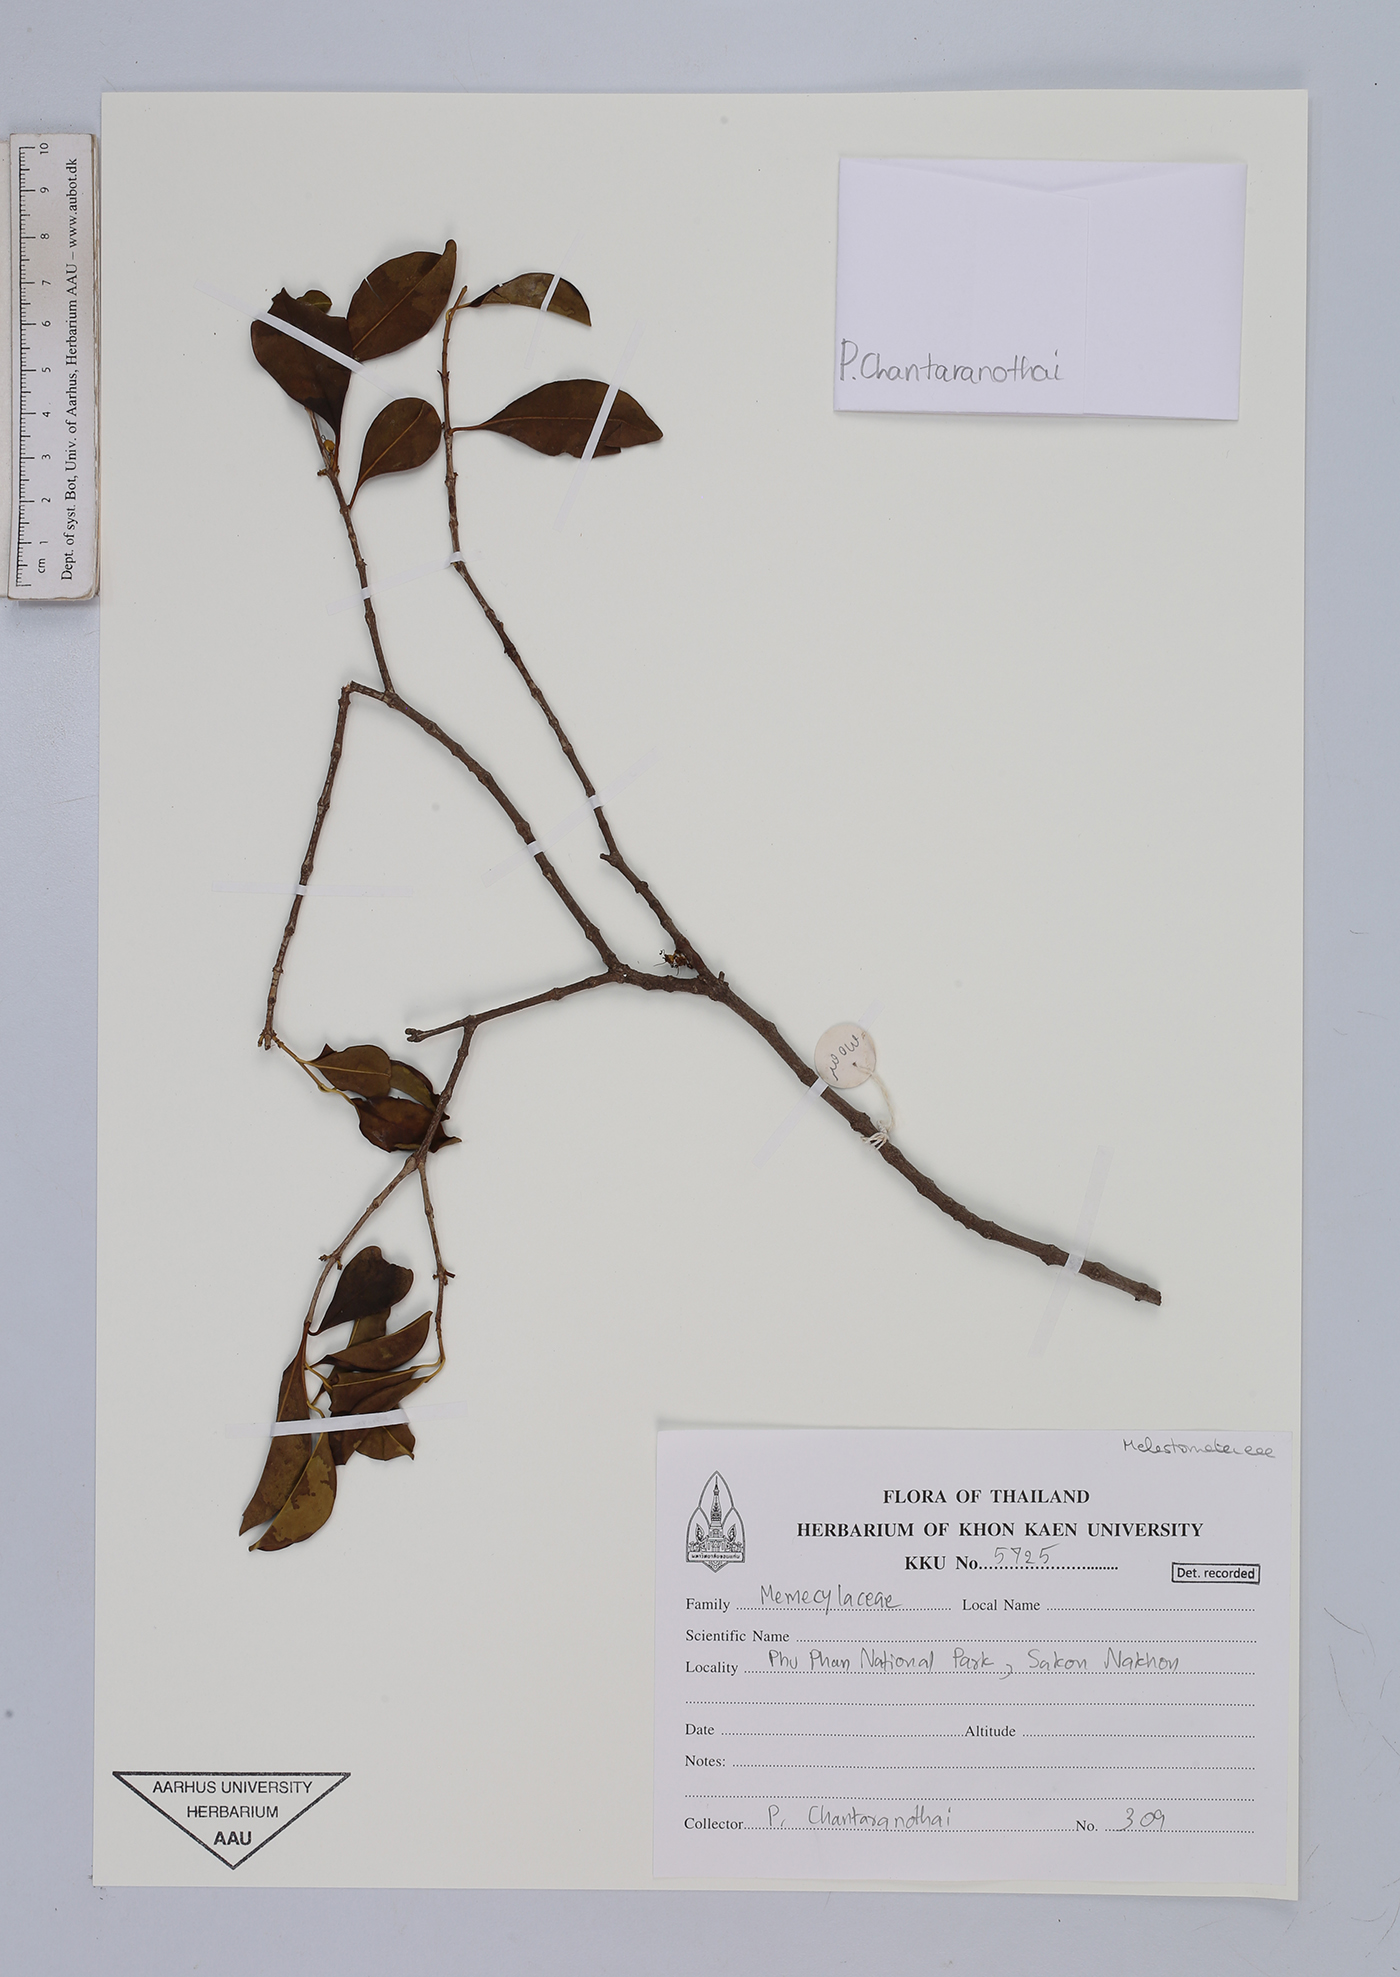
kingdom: Plantae
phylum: Tracheophyta
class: Magnoliopsida
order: Myrtales
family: Melastomataceae
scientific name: Melastomataceae
